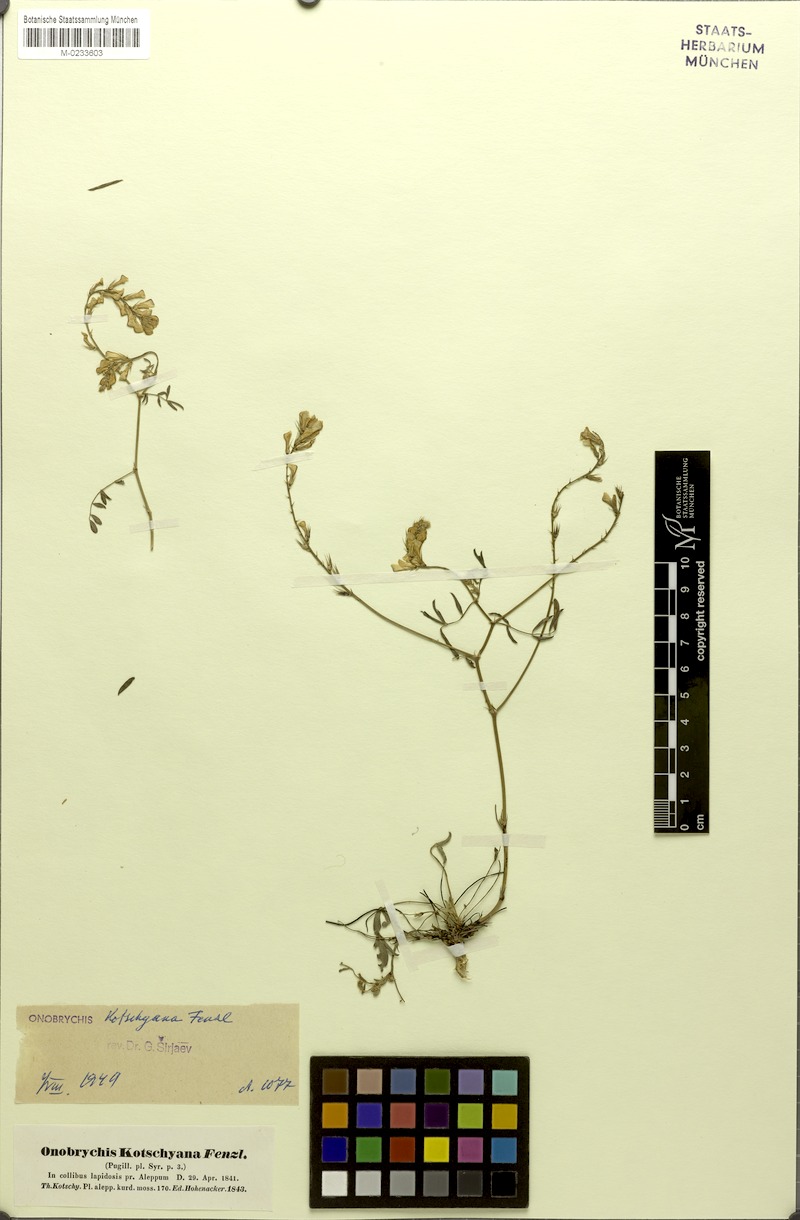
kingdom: Plantae
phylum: Tracheophyta
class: Magnoliopsida
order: Fabales
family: Fabaceae
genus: Onobrychis
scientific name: Onobrychis kotschyana
